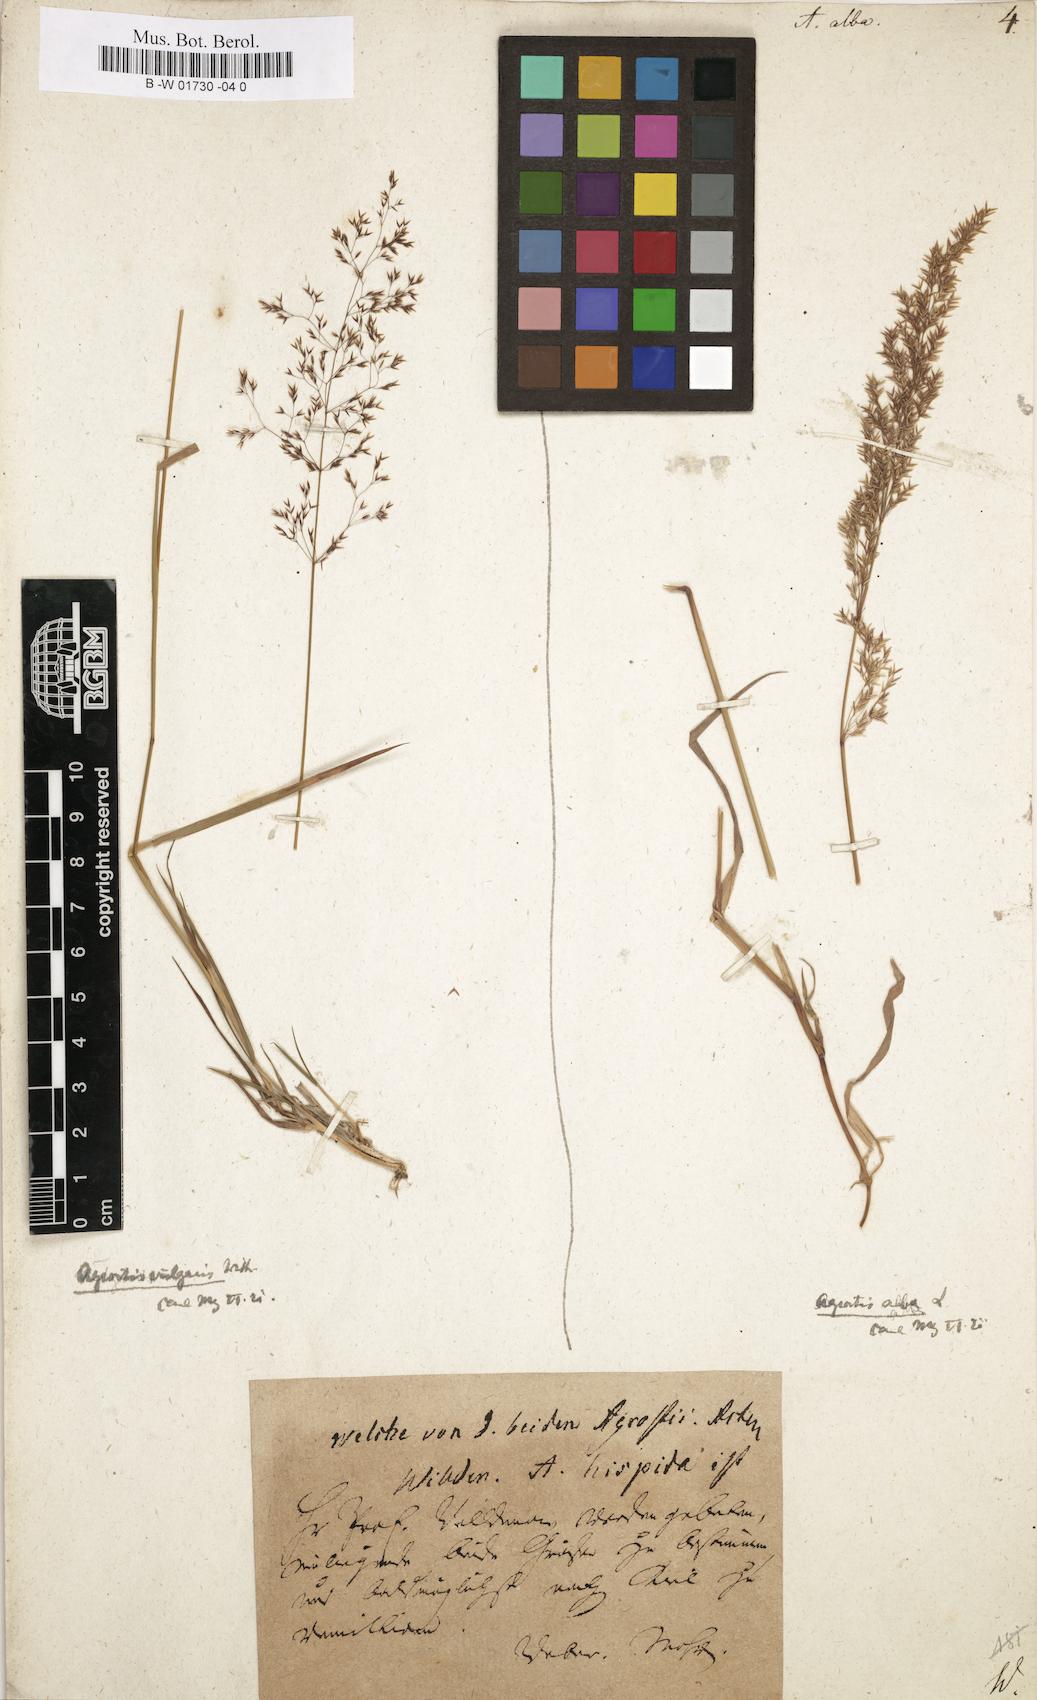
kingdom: Plantae
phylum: Tracheophyta
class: Liliopsida
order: Poales
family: Poaceae
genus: Poa
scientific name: Poa nemoralis
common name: Wood bluegrass
